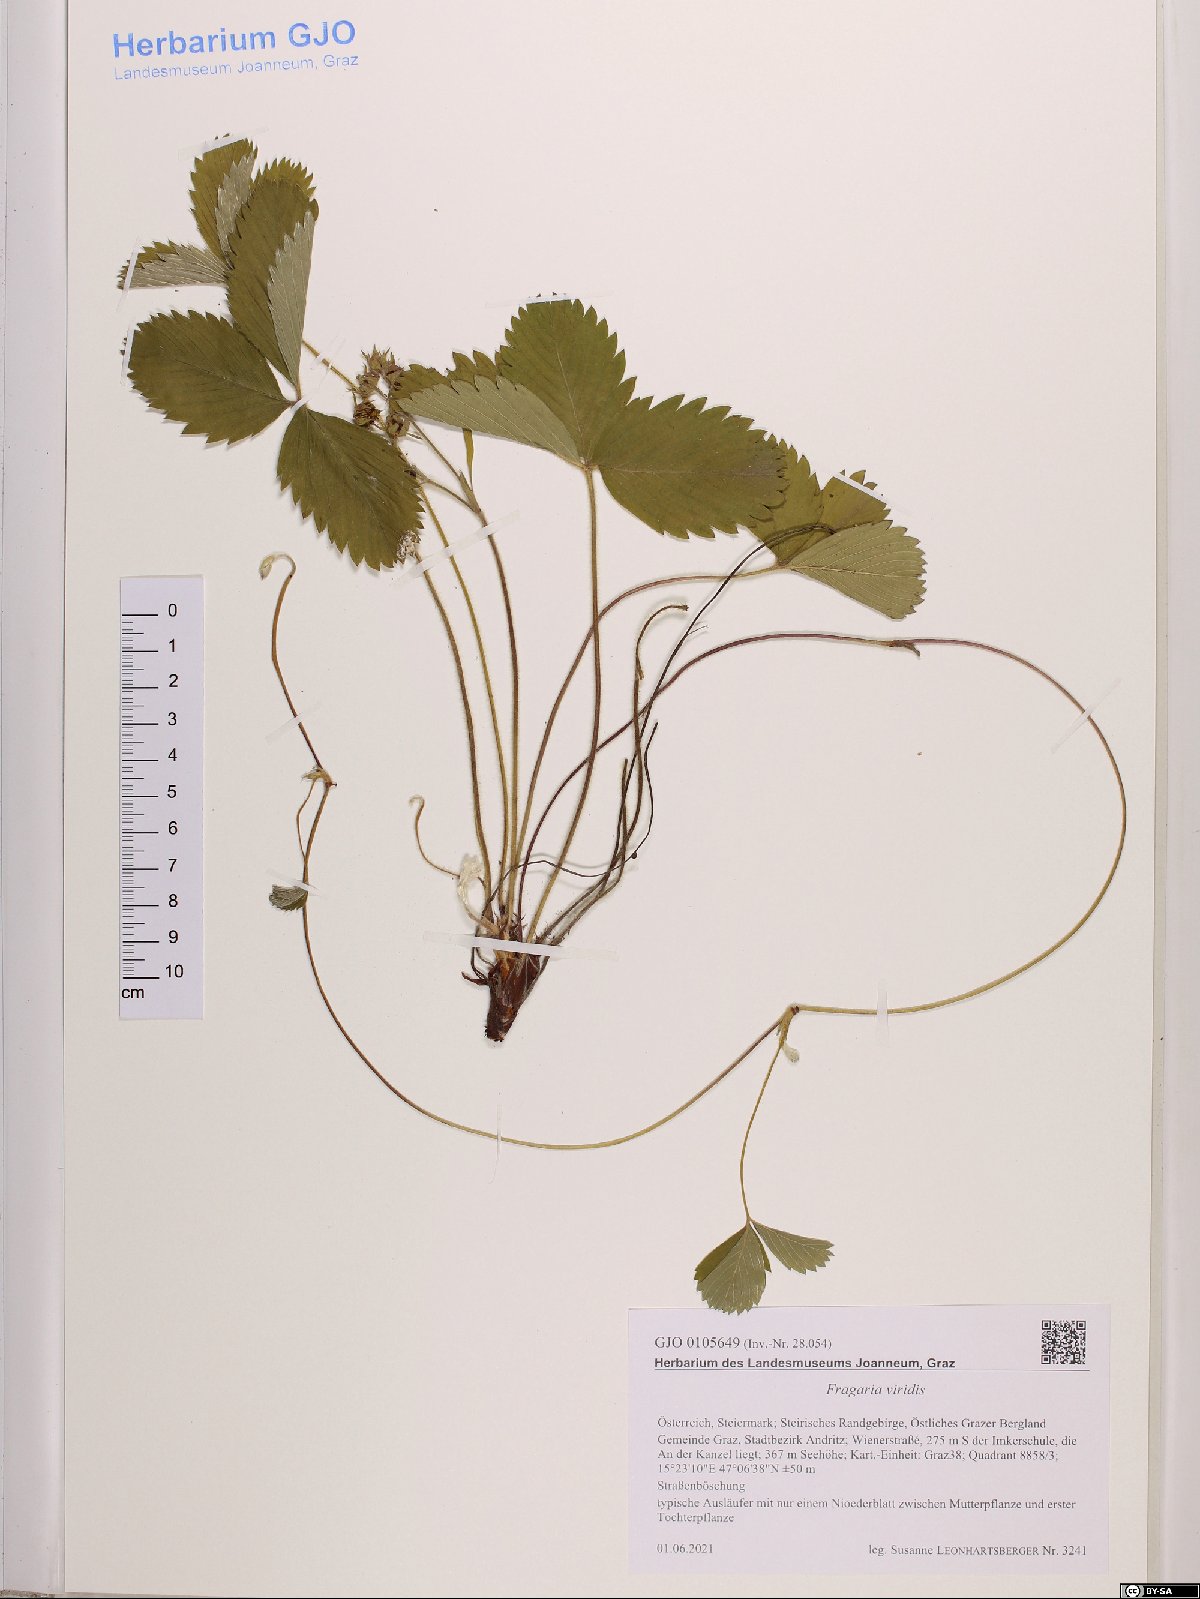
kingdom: Plantae
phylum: Tracheophyta
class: Magnoliopsida
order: Rosales
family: Rosaceae
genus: Fragaria
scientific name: Fragaria viridis
